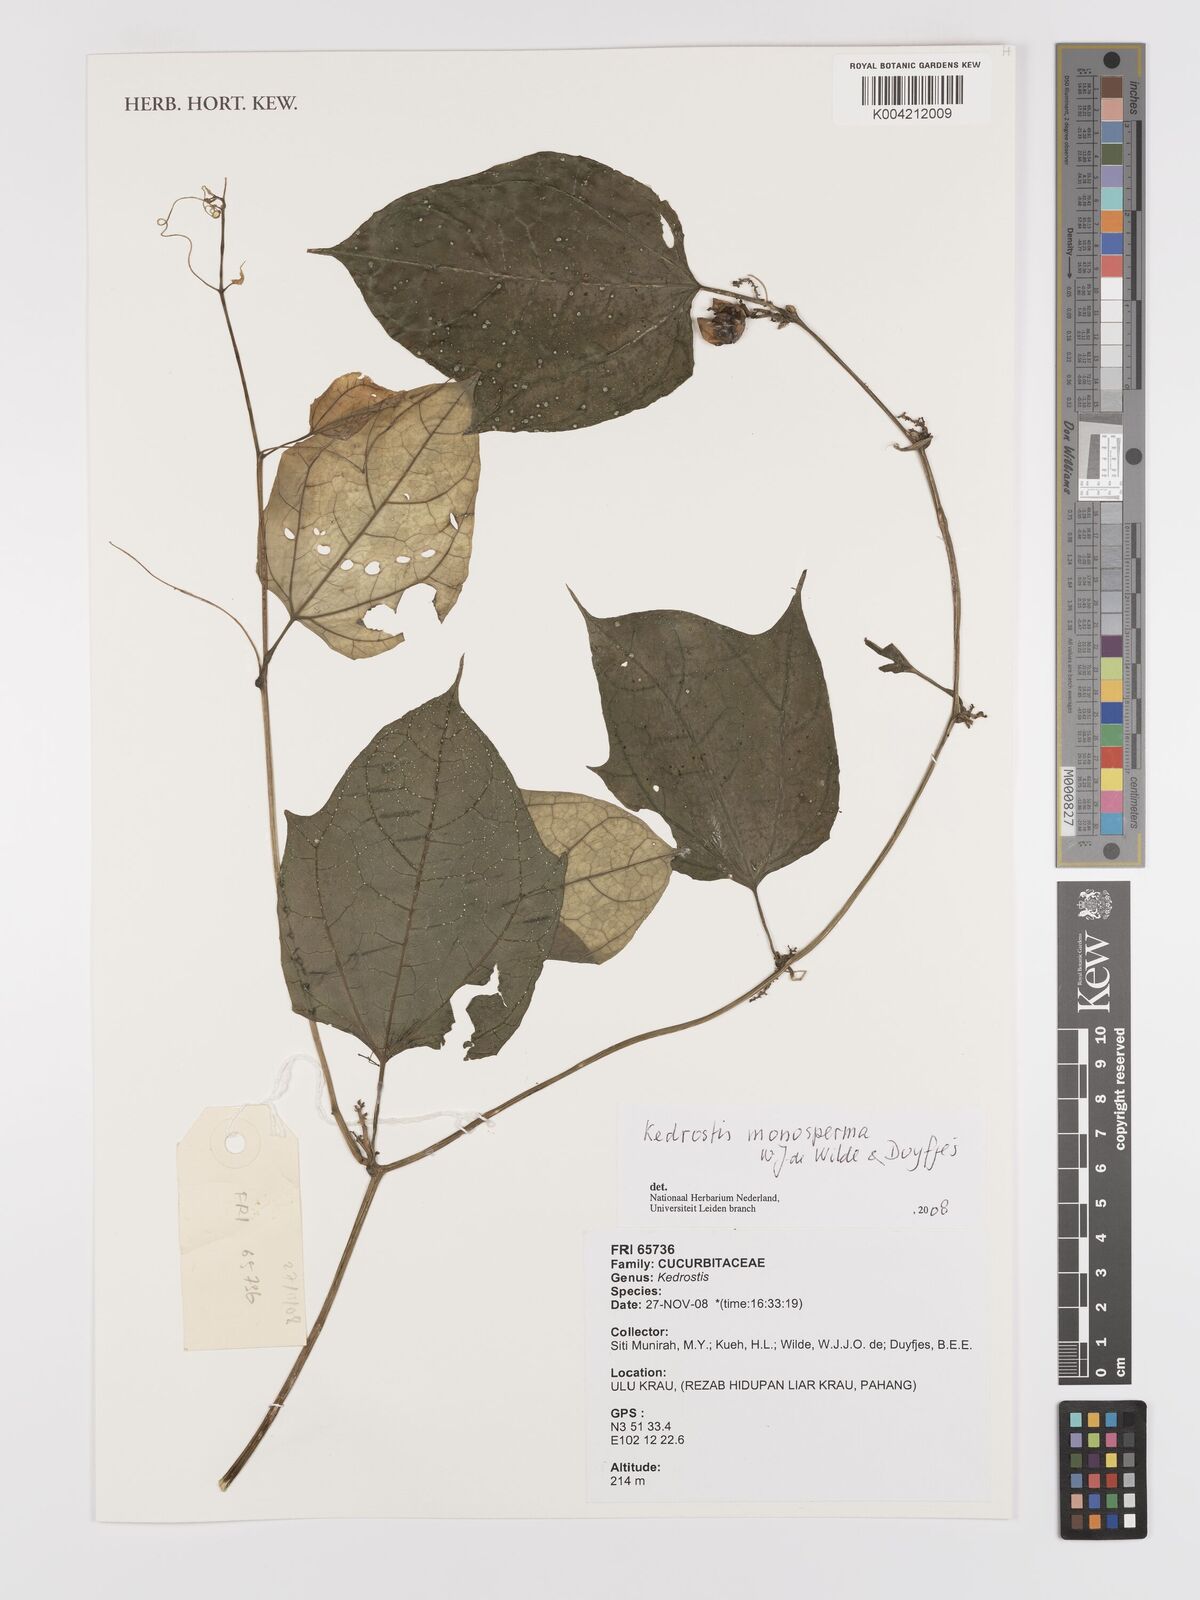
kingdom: Plantae
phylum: Tracheophyta
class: Magnoliopsida
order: Cucurbitales
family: Cucurbitaceae
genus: Kedrostis
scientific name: Kedrostis monosperma
